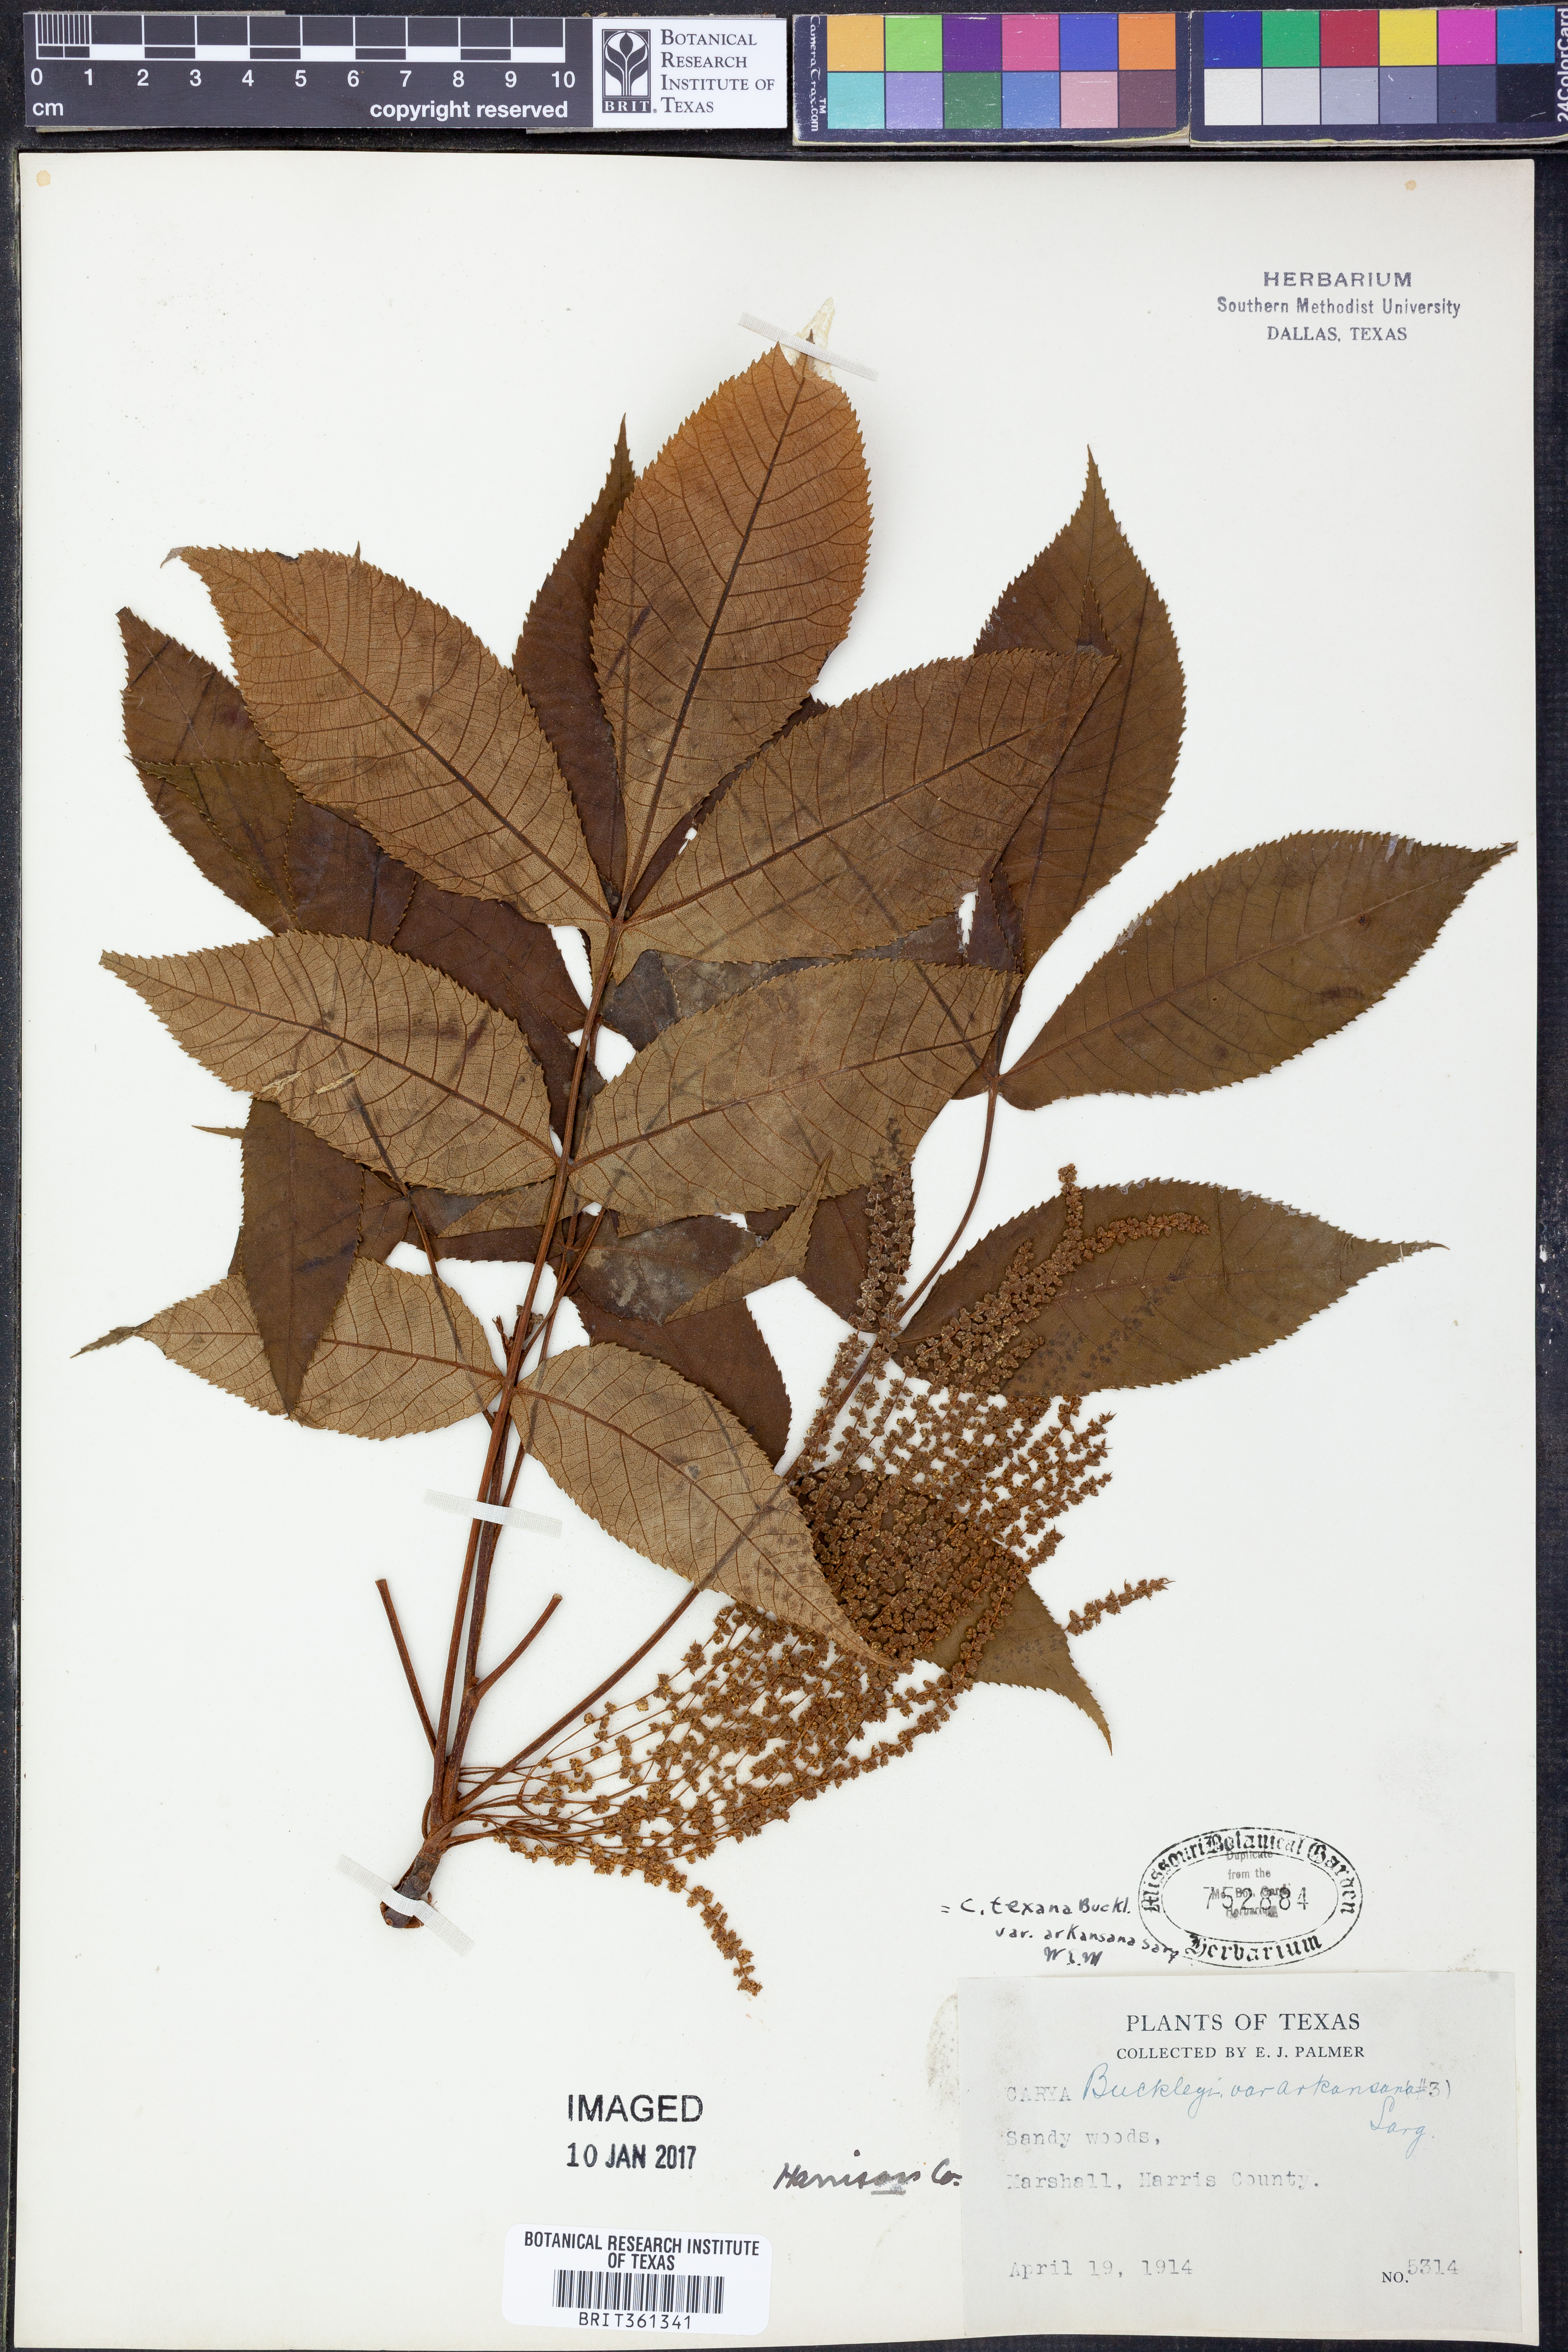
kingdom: Plantae
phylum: Tracheophyta
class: Magnoliopsida
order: Fagales
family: Juglandaceae
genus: Carya
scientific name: Carya texana
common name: Black hickory
